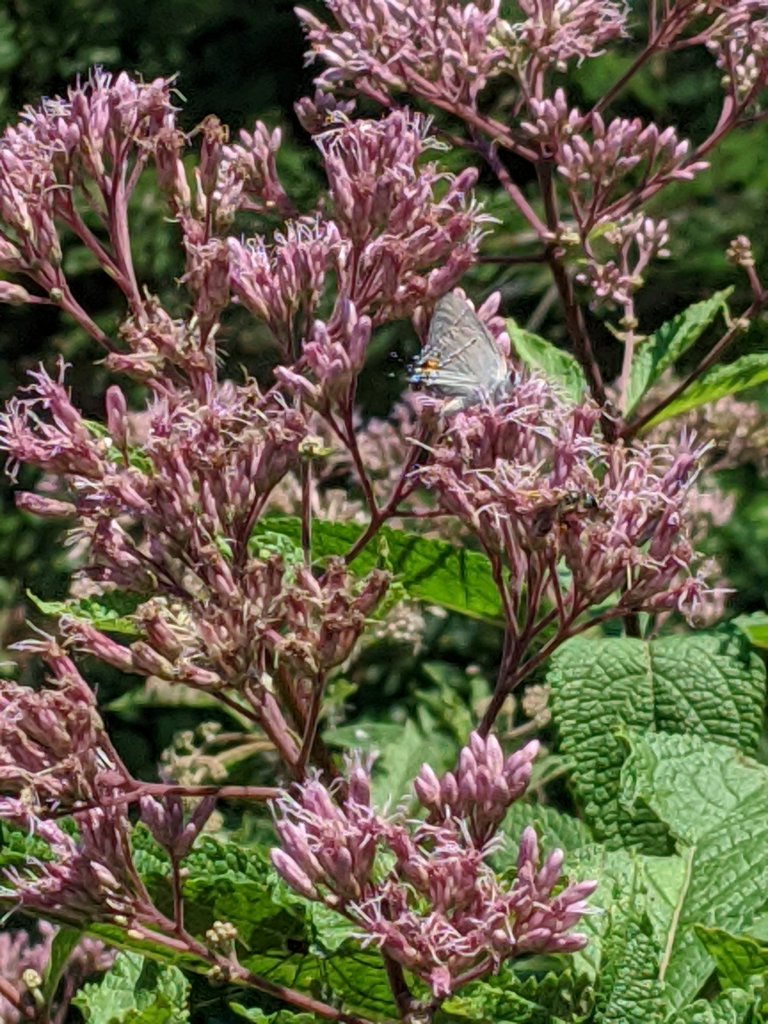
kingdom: Animalia
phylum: Arthropoda
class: Insecta
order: Lepidoptera
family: Lycaenidae
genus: Strymon
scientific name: Strymon melinus
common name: Gray Hairstreak
